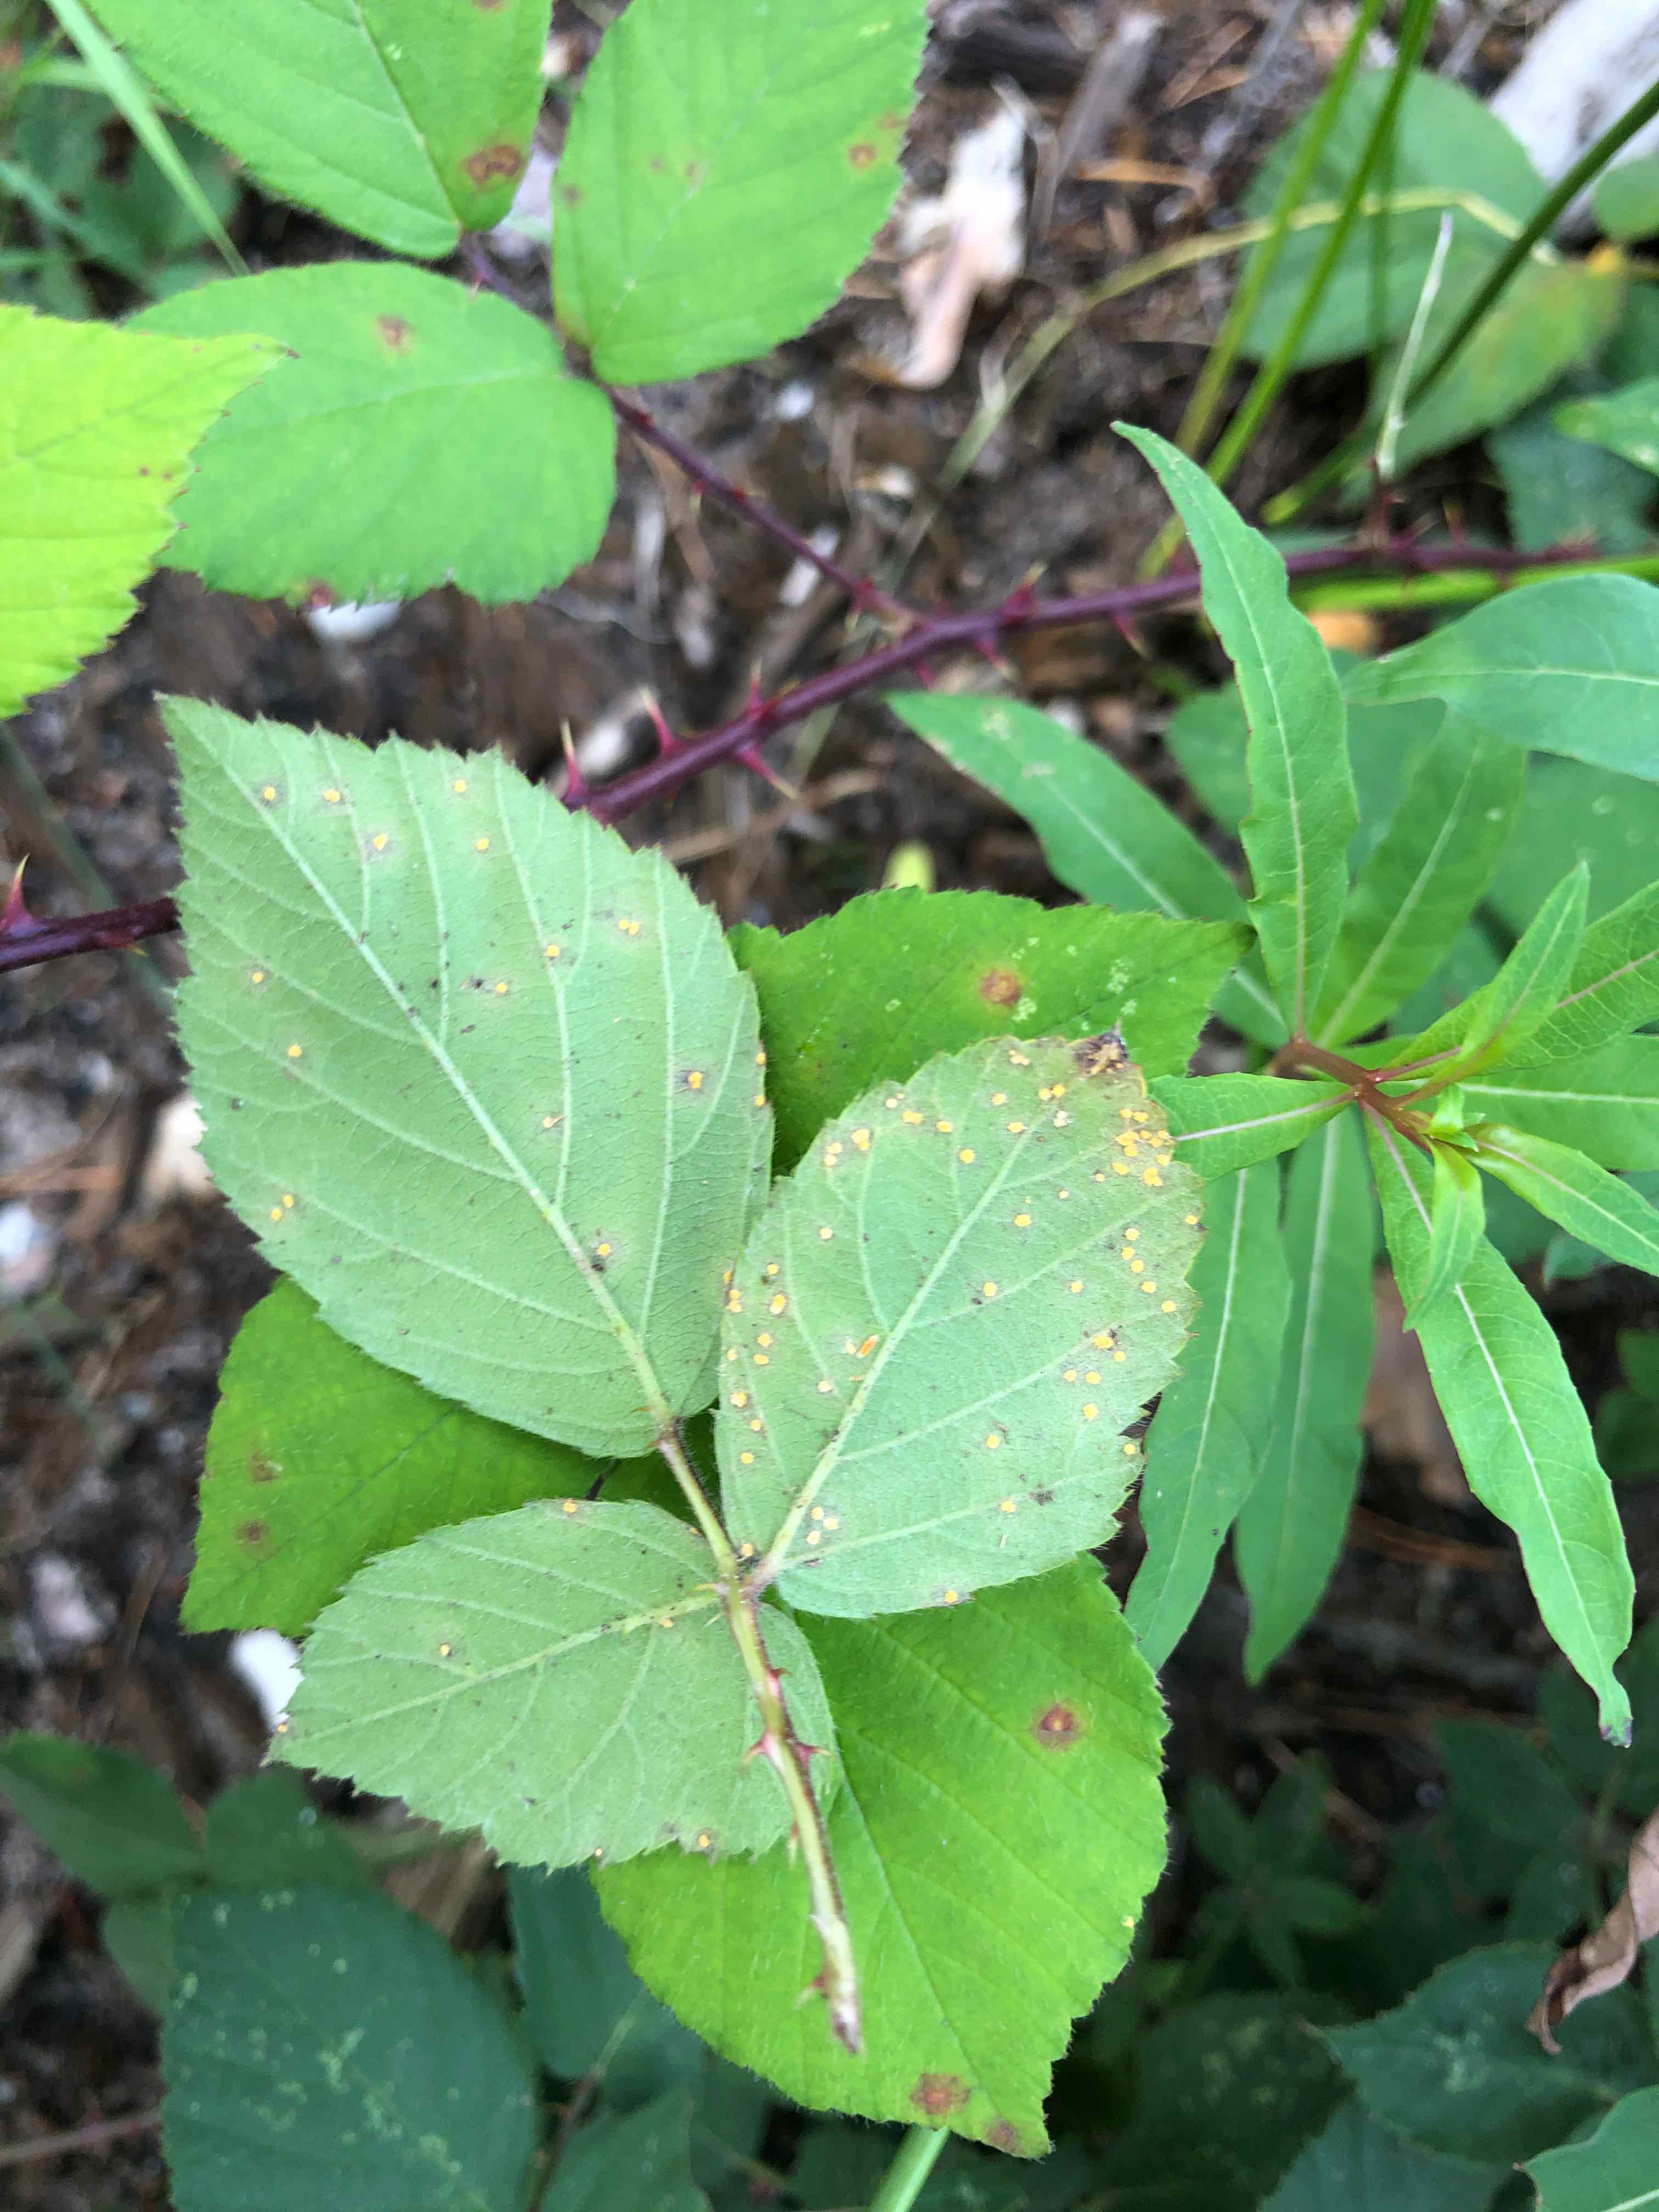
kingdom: Fungi
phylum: Basidiomycota
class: Pucciniomycetes
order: Pucciniales
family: Phragmidiaceae
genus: Phragmidium
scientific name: Phragmidium violaceum
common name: violet flercellerust
